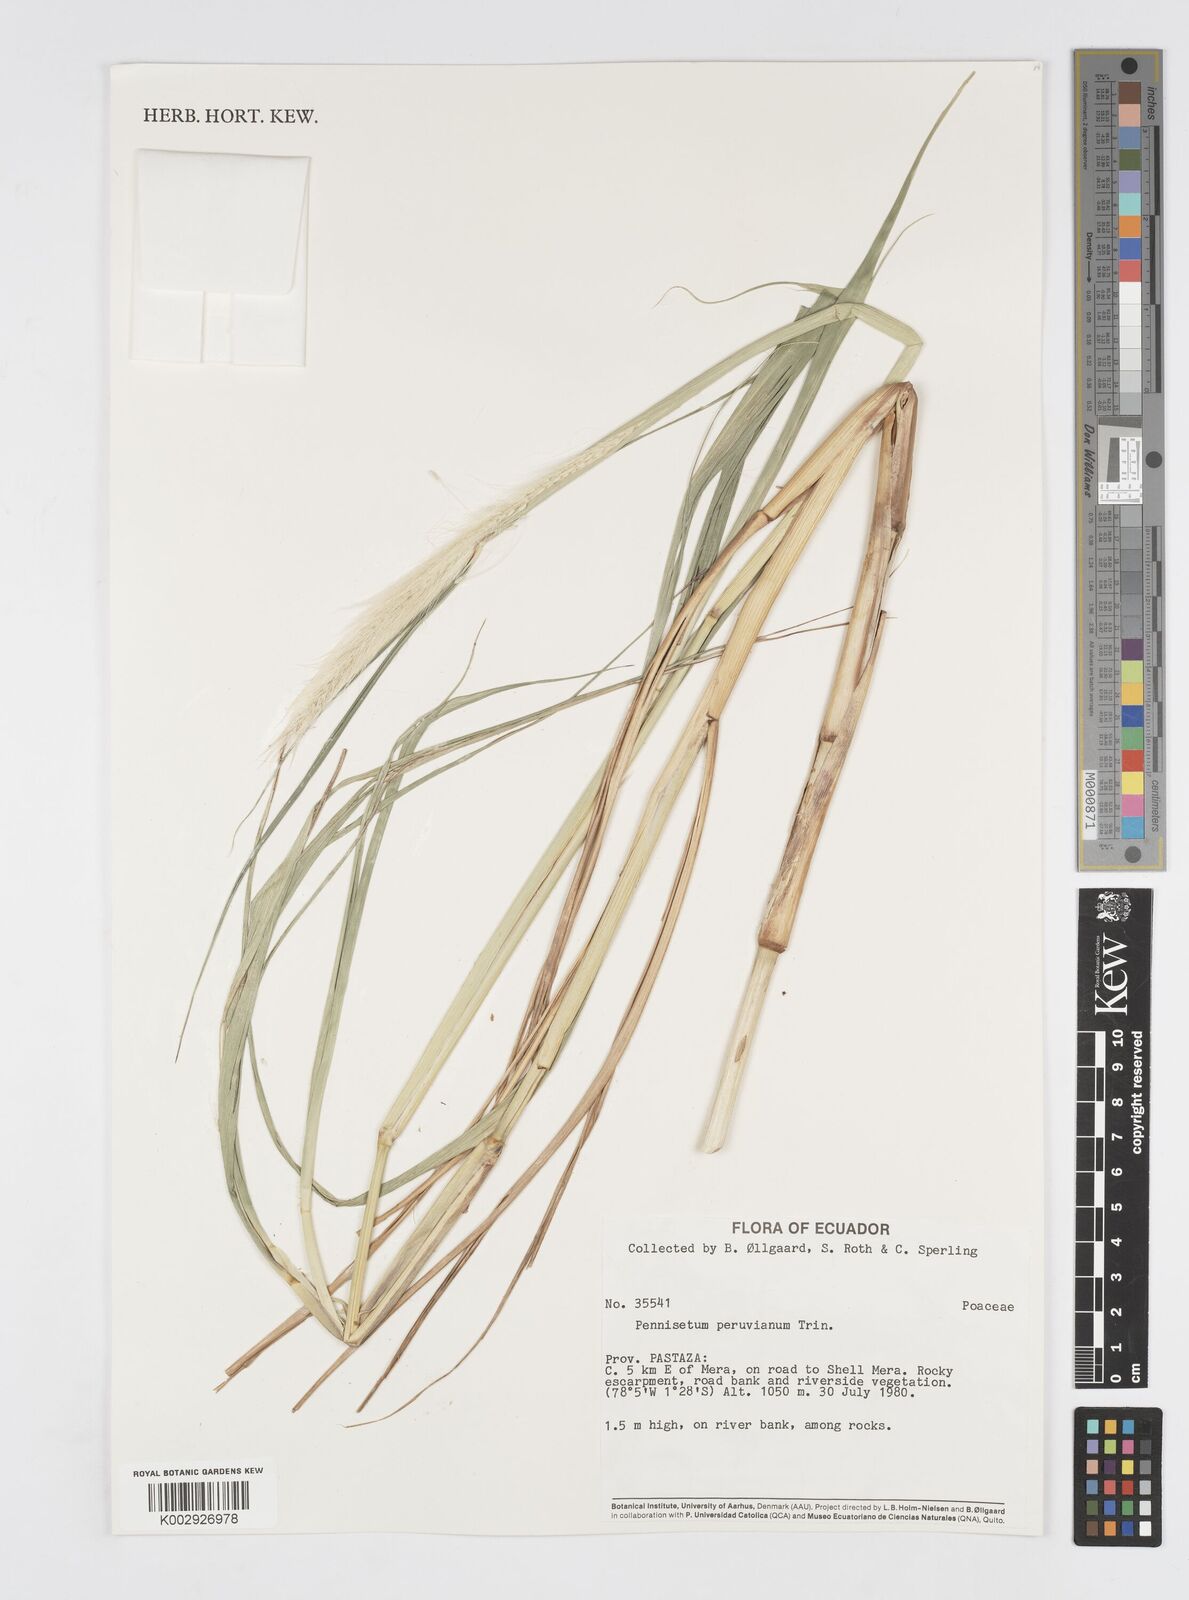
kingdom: Plantae
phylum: Tracheophyta
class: Liliopsida
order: Poales
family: Poaceae
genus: Cenchrus
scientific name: Cenchrus peruvianus
